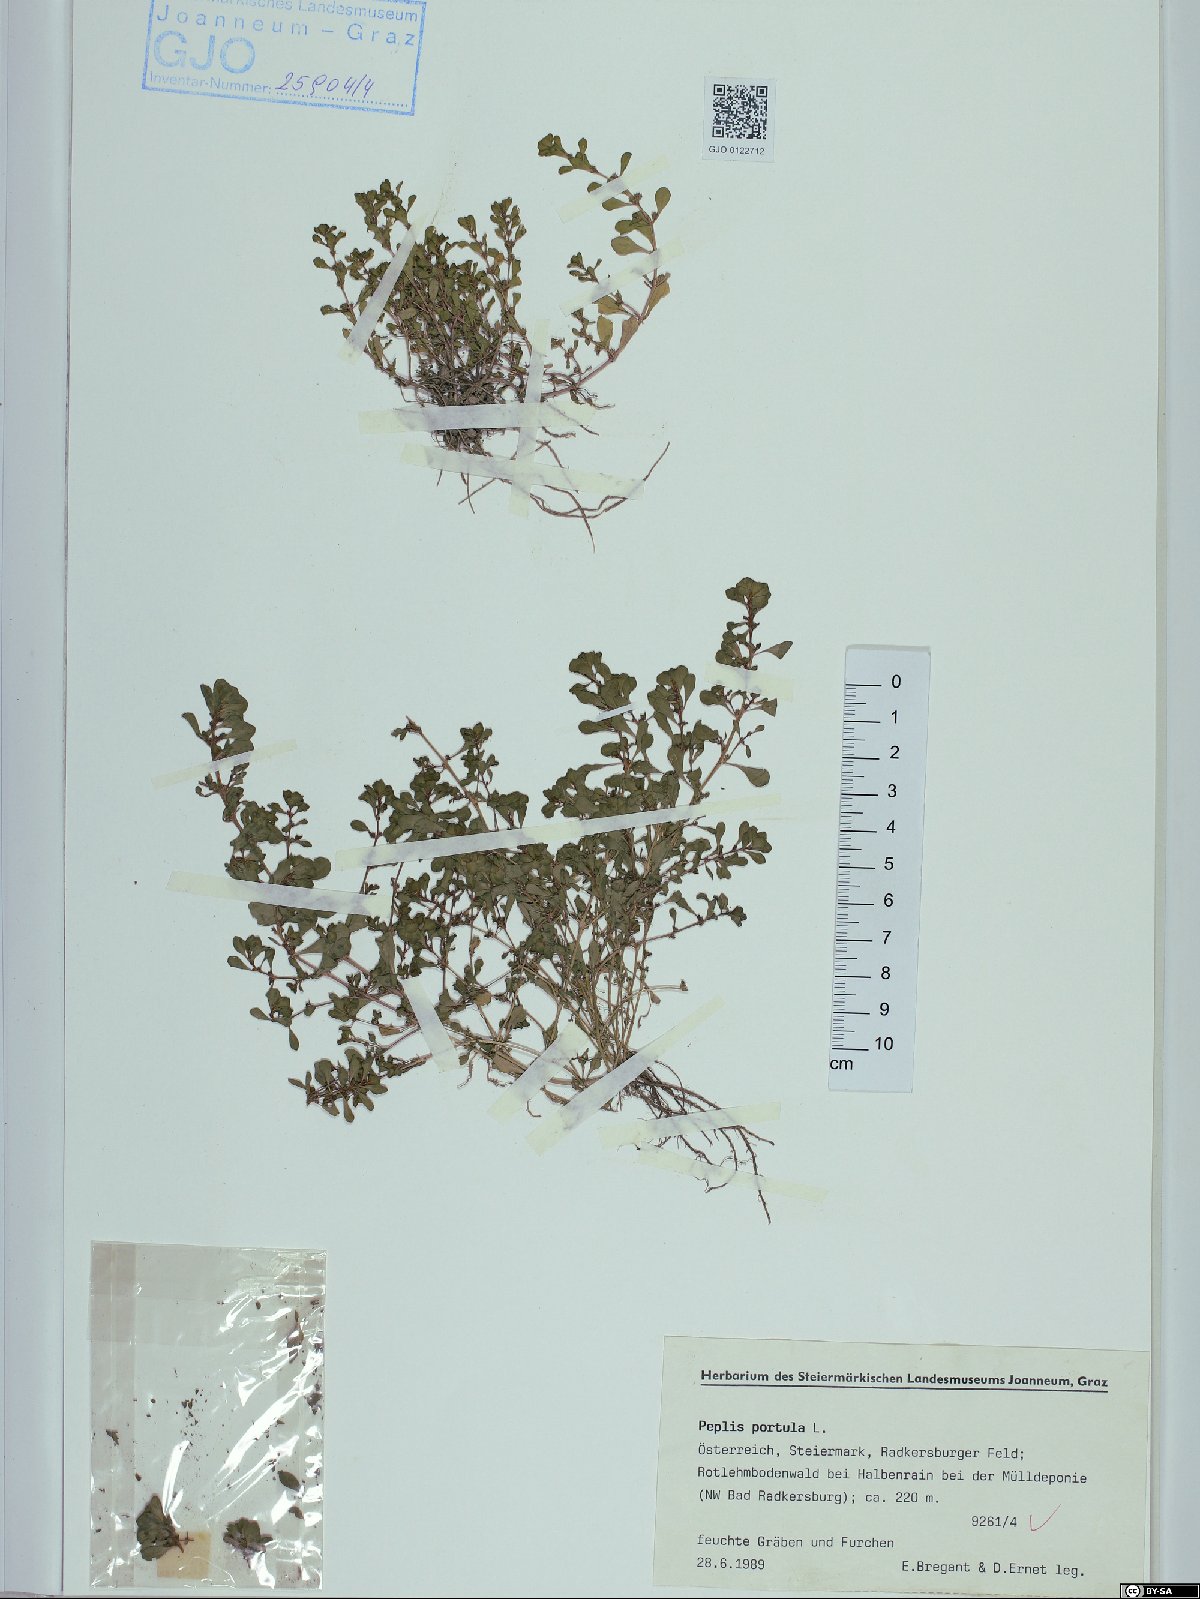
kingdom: Plantae
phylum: Tracheophyta
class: Magnoliopsida
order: Myrtales
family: Lythraceae
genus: Lythrum
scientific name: Lythrum portula
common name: Water purslane
